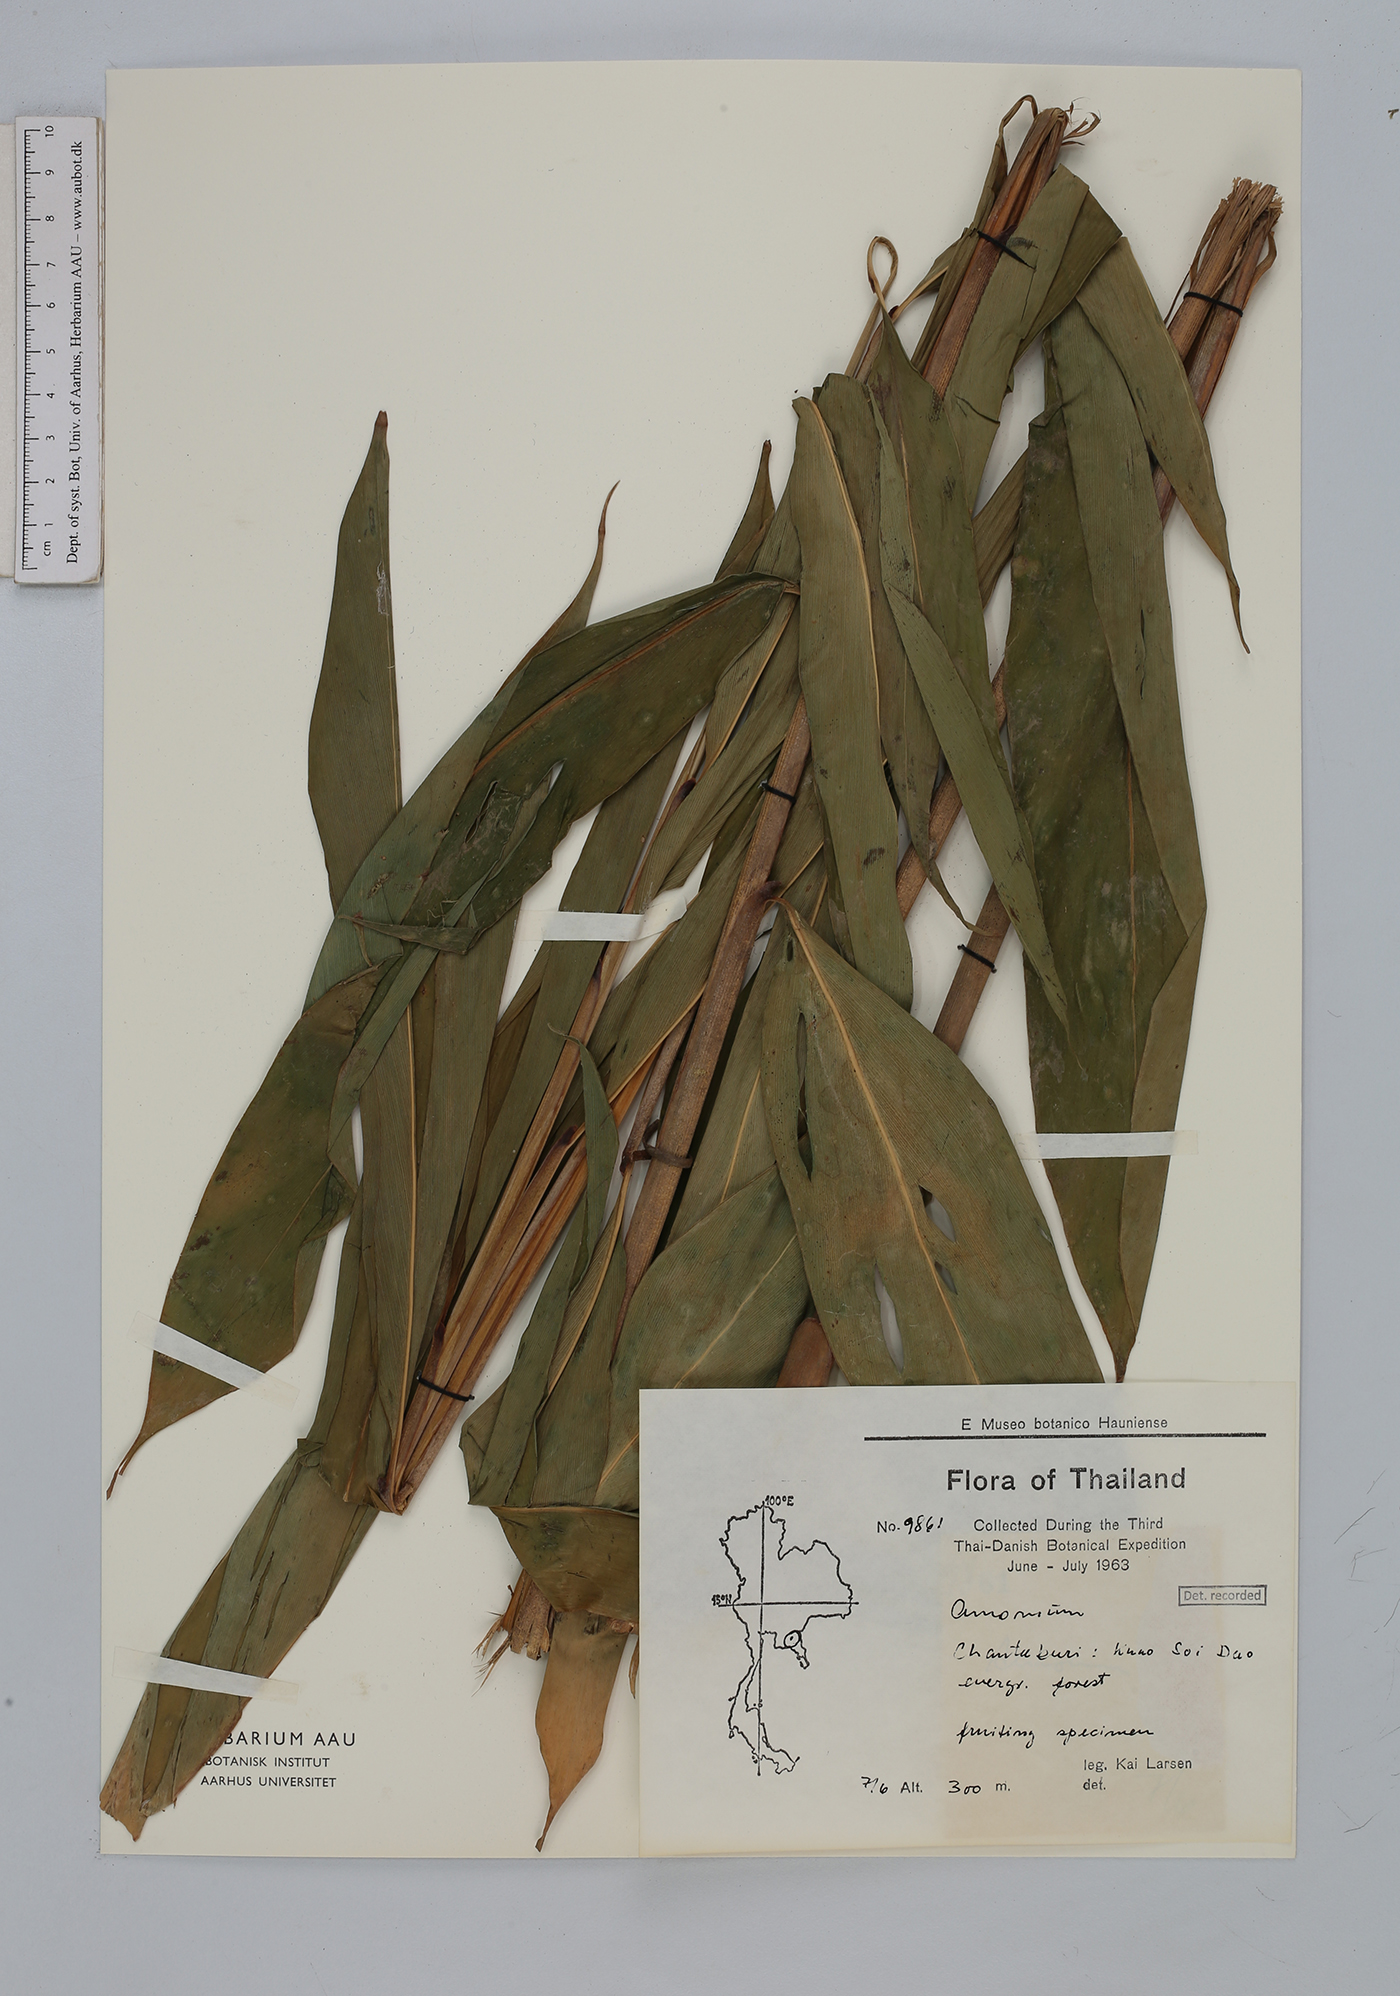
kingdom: Plantae
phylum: Tracheophyta
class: Liliopsida
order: Zingiberales
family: Zingiberaceae
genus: Amomum
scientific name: Amomum
